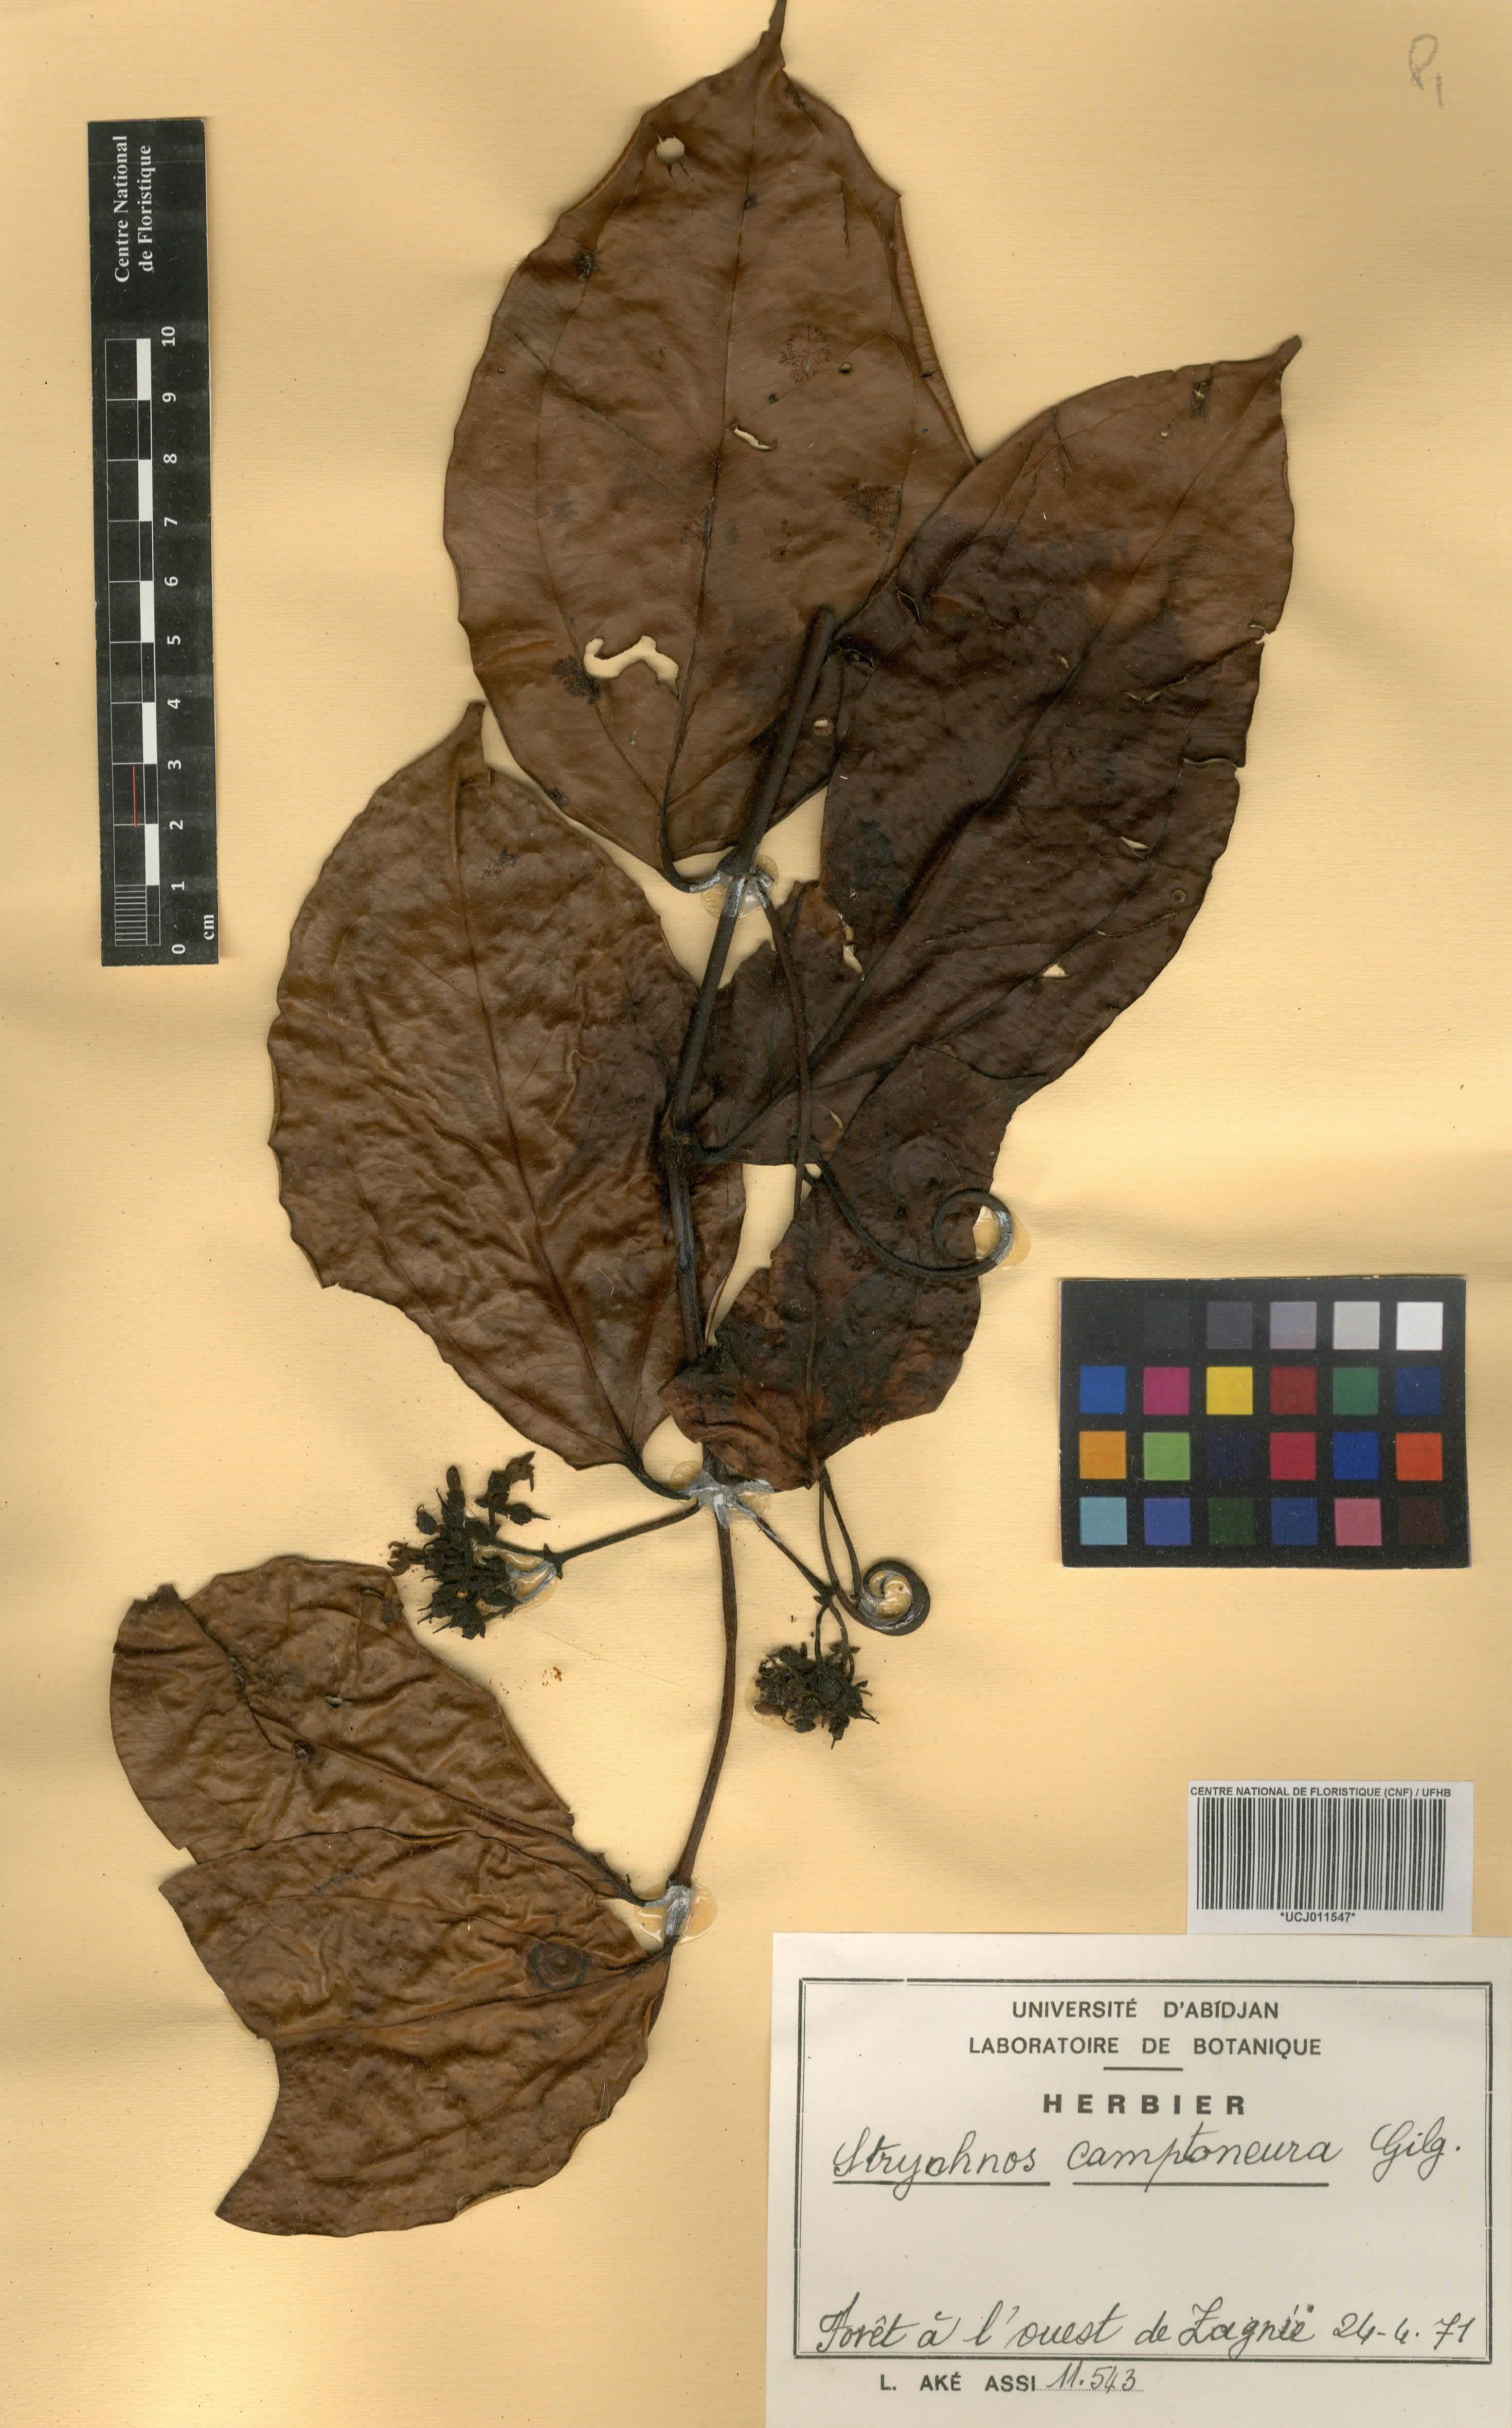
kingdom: Plantae
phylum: Tracheophyta
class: Magnoliopsida
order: Gentianales
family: Loganiaceae
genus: Strychnos
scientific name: Strychnos camptoneura
